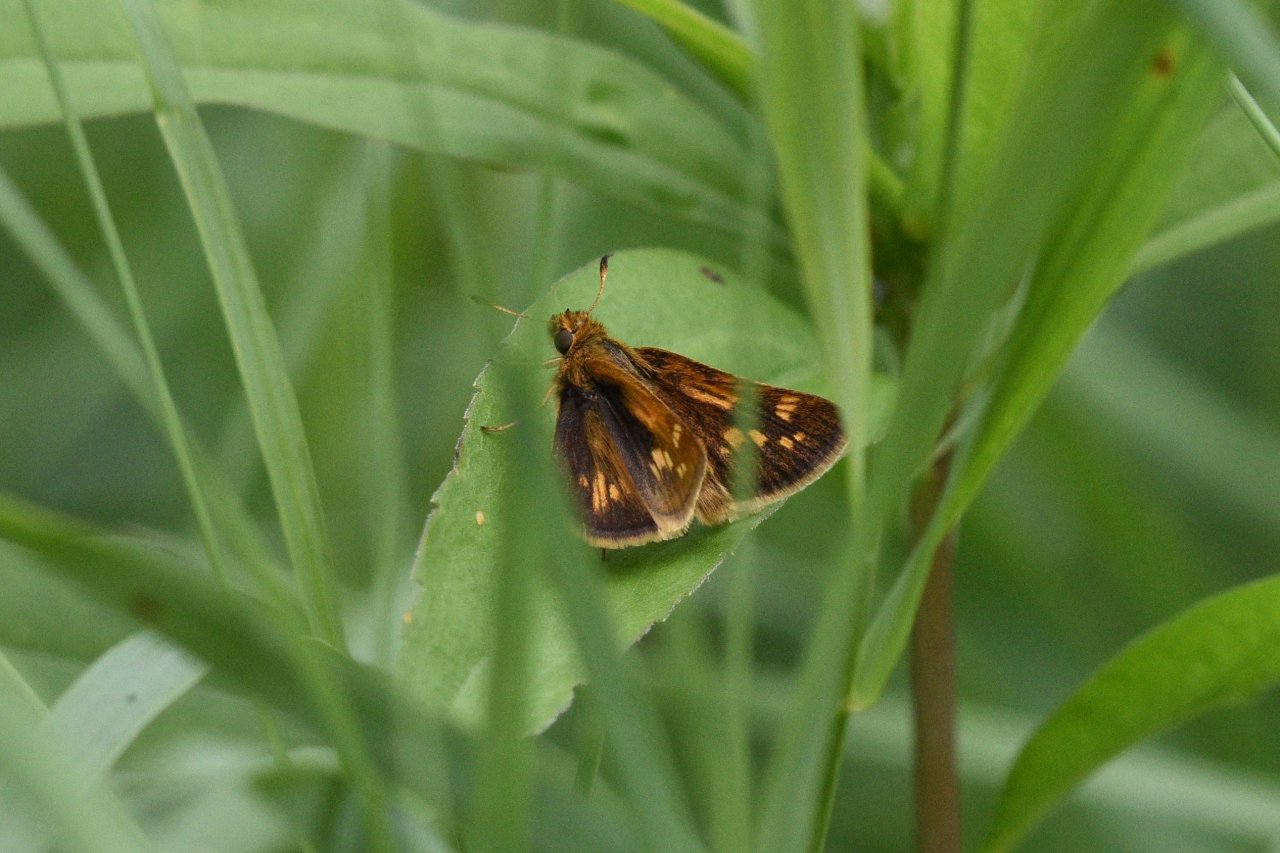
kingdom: Animalia
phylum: Arthropoda
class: Insecta
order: Lepidoptera
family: Hesperiidae
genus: Polites
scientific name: Polites coras
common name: Peck's Skipper
